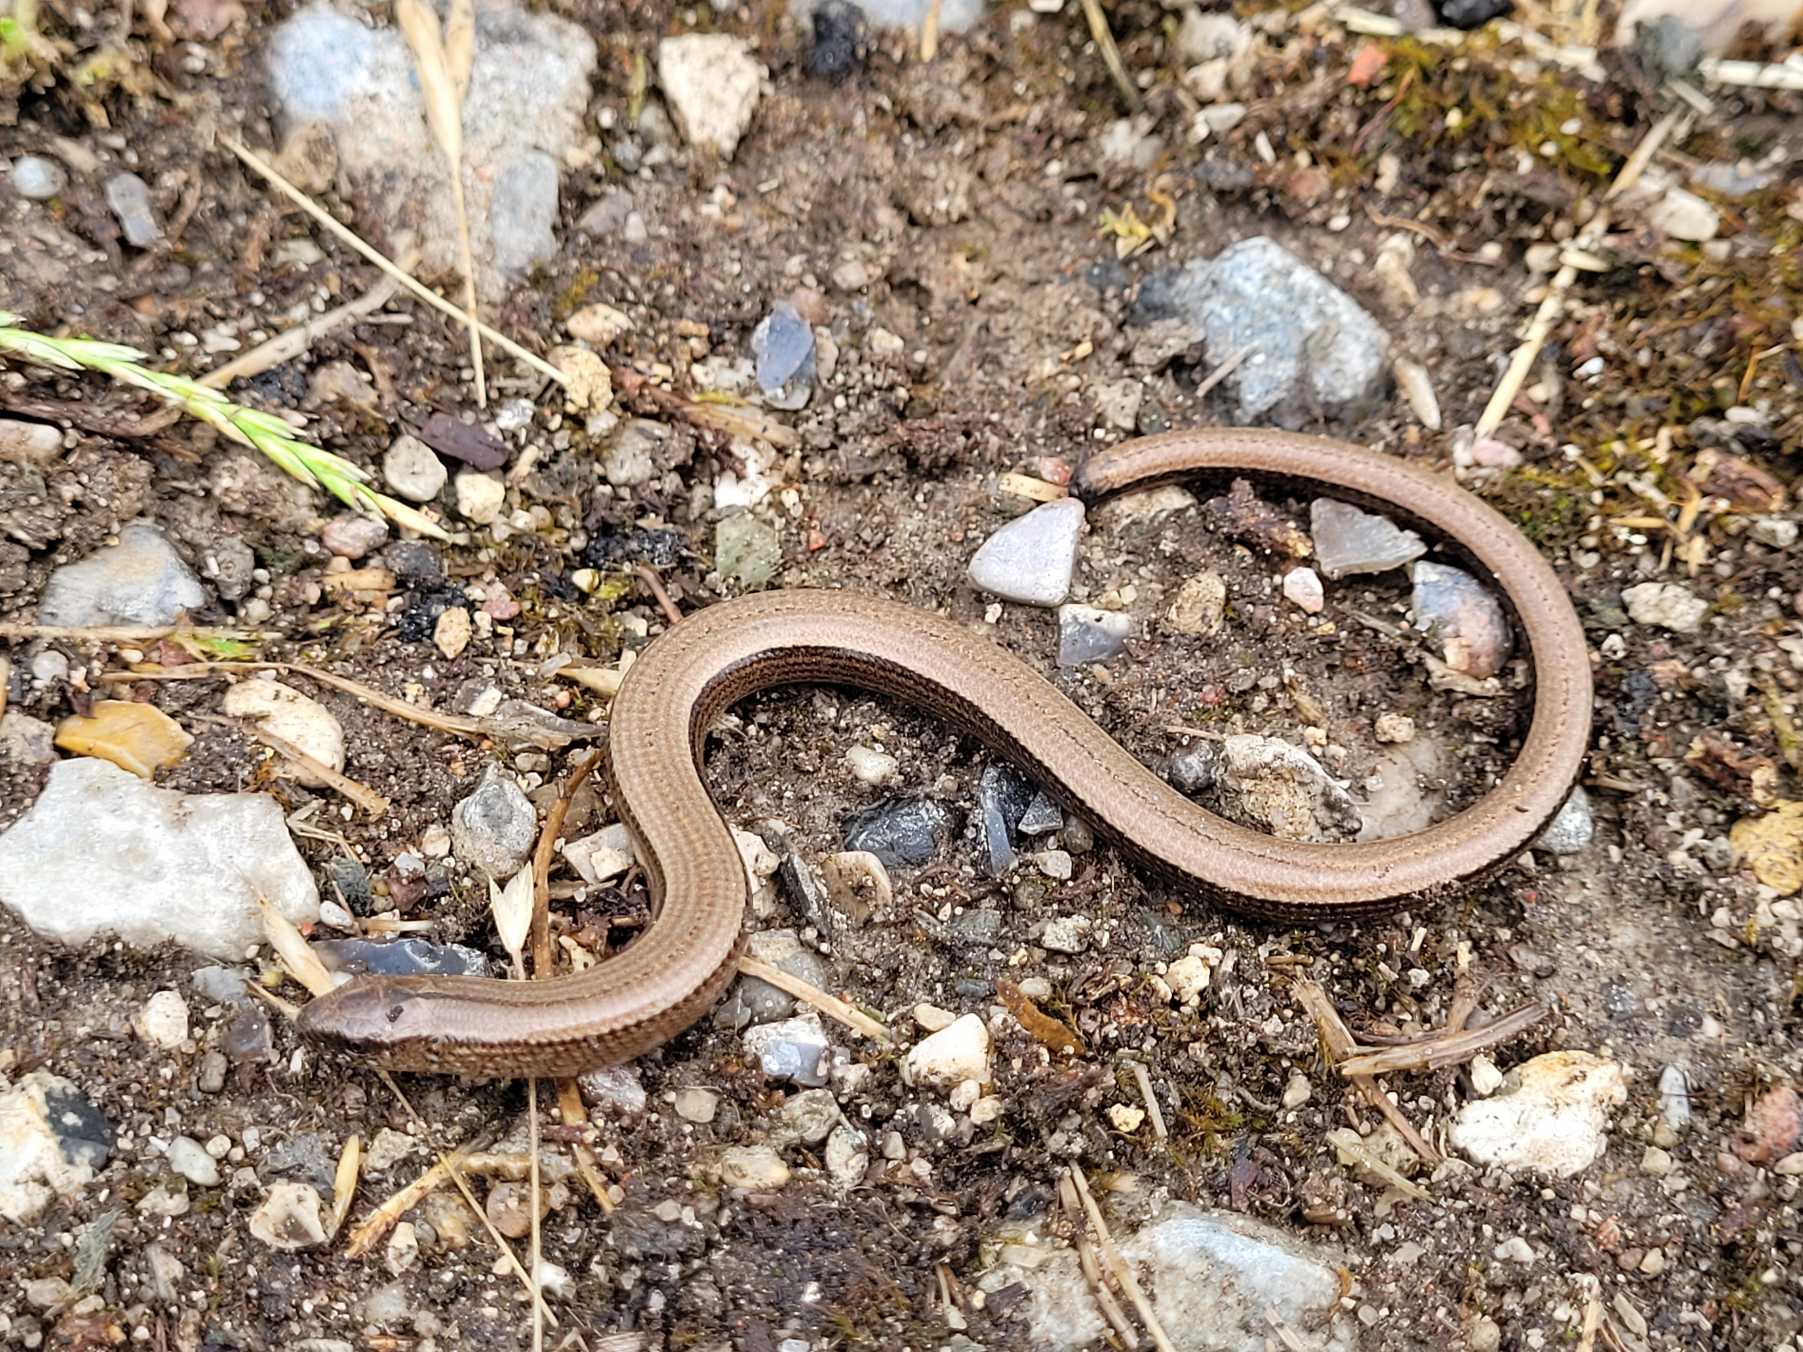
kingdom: Animalia
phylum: Chordata
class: Squamata
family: Anguidae
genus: Anguis
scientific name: Anguis fragilis
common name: Stålorm
